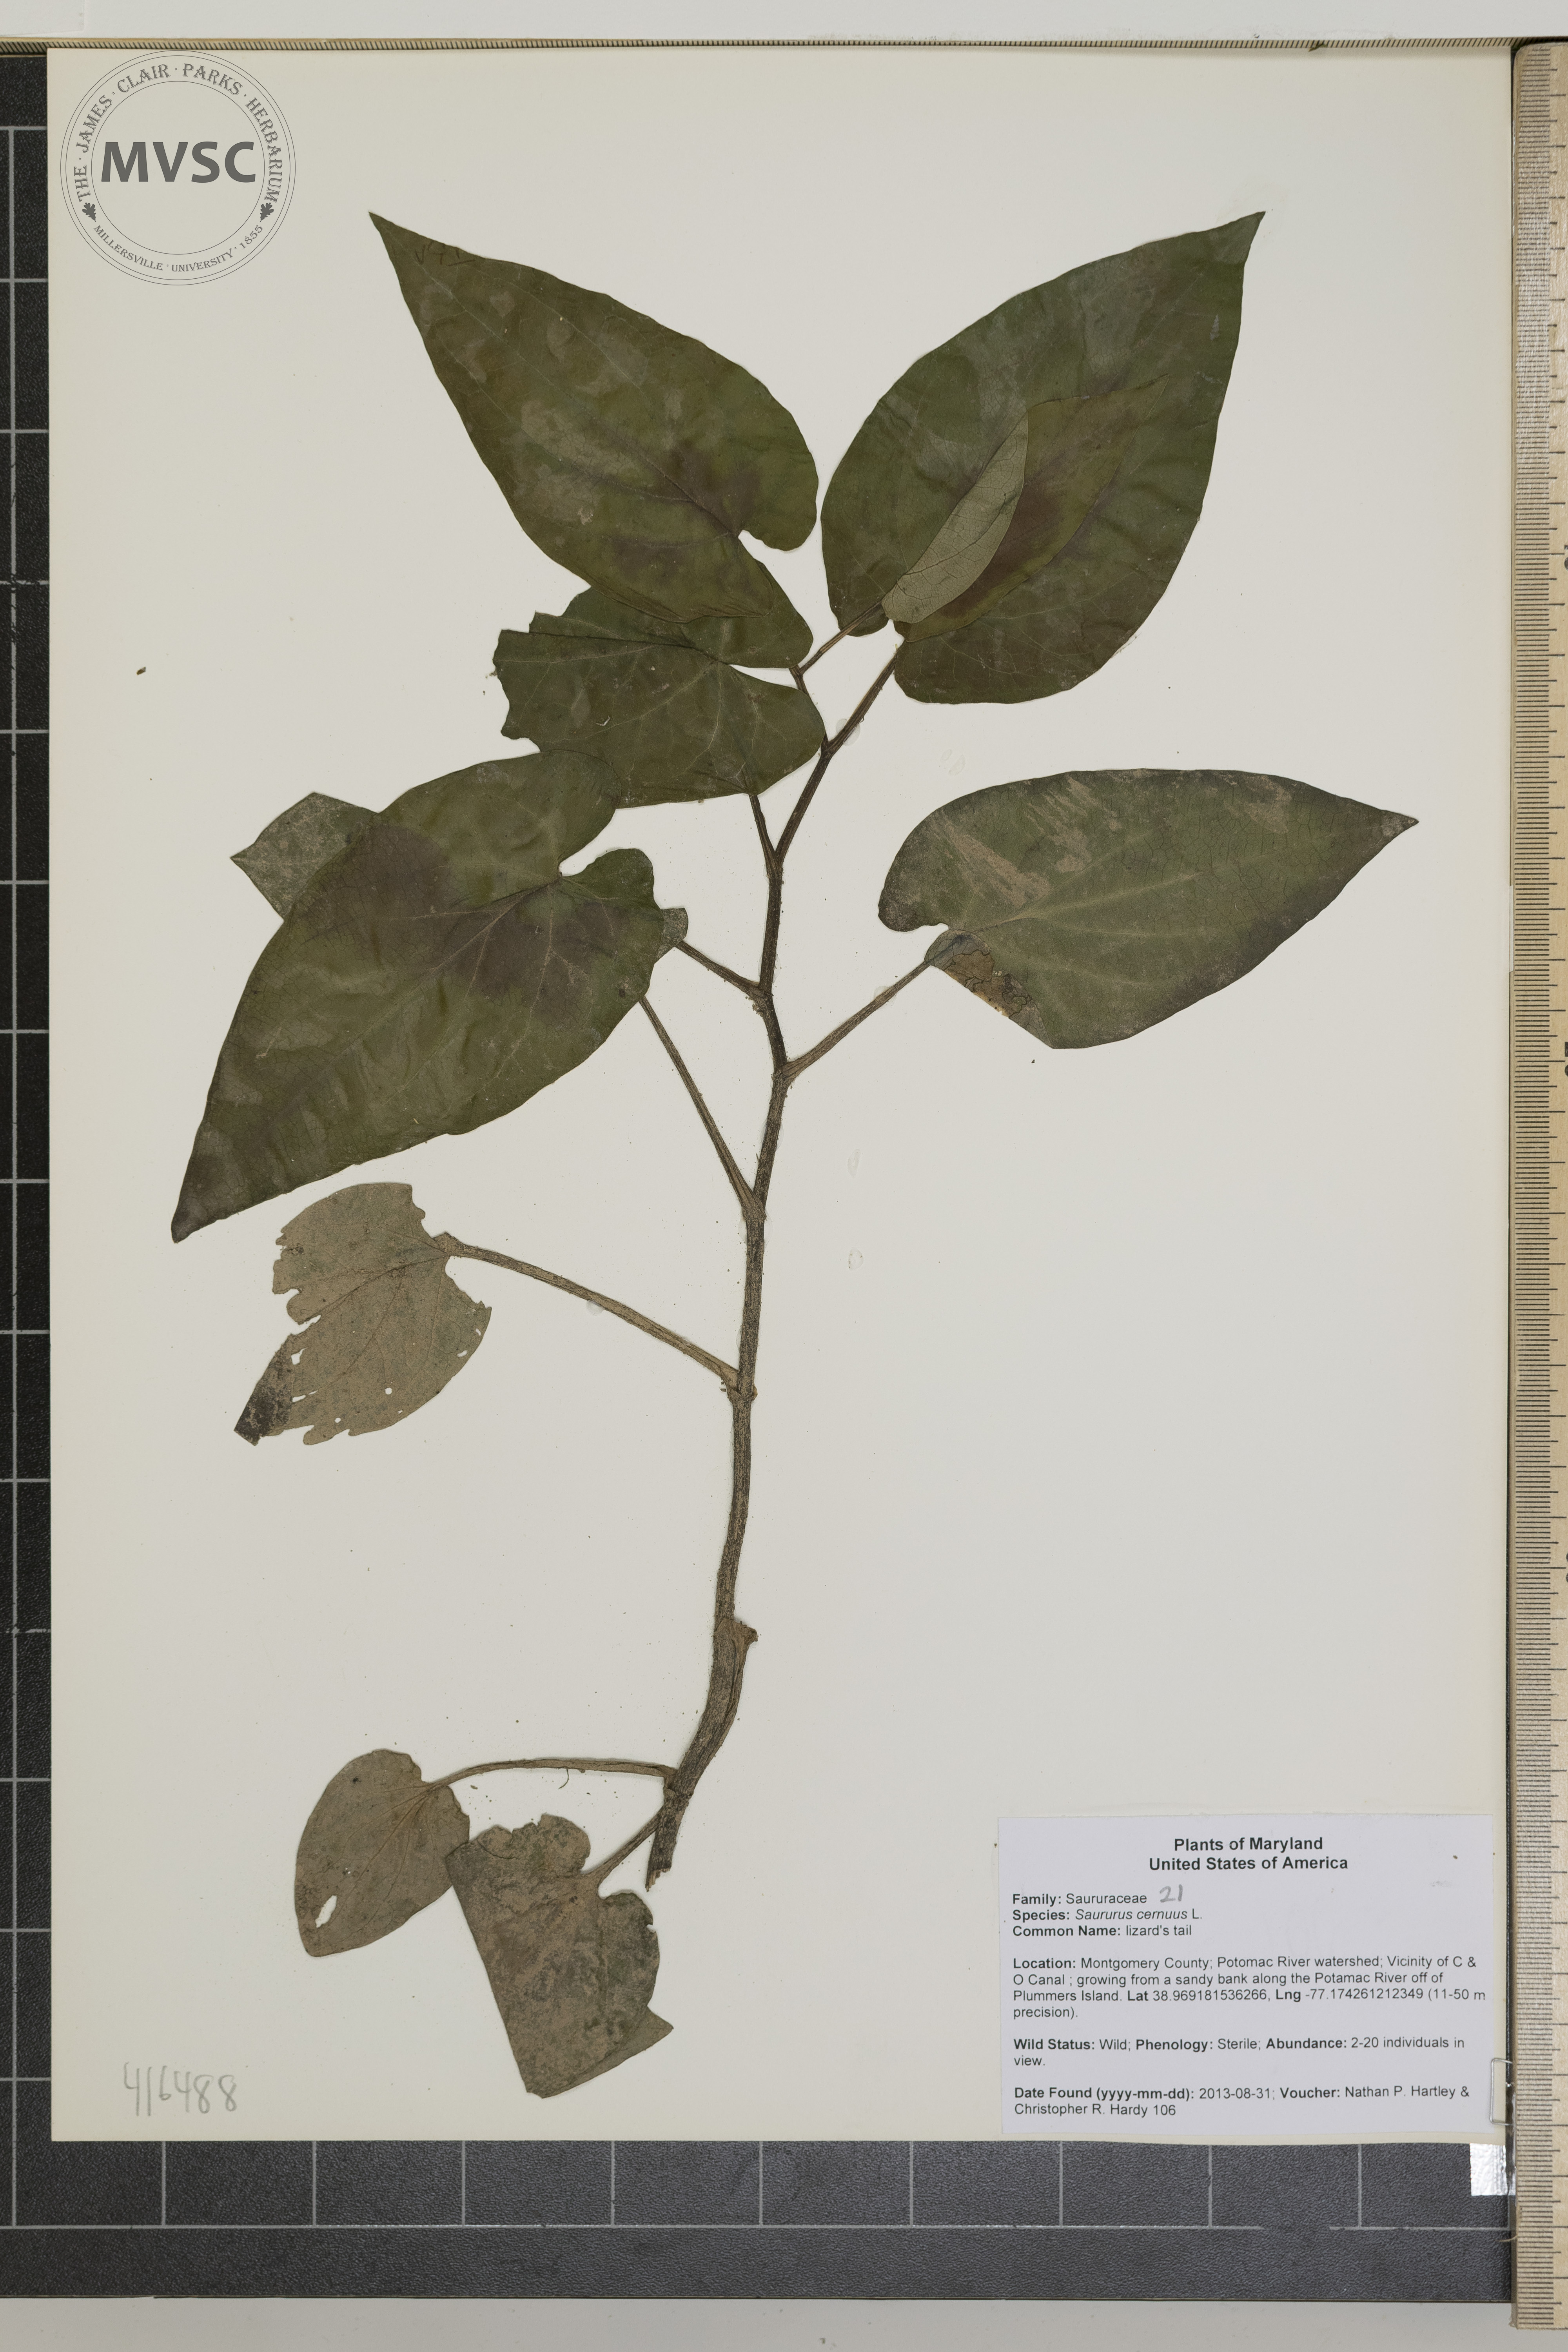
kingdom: Plantae
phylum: Tracheophyta
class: Magnoliopsida
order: Piperales
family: Saururaceae
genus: Saururus
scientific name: Saururus cernuus
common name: lizard's tail
